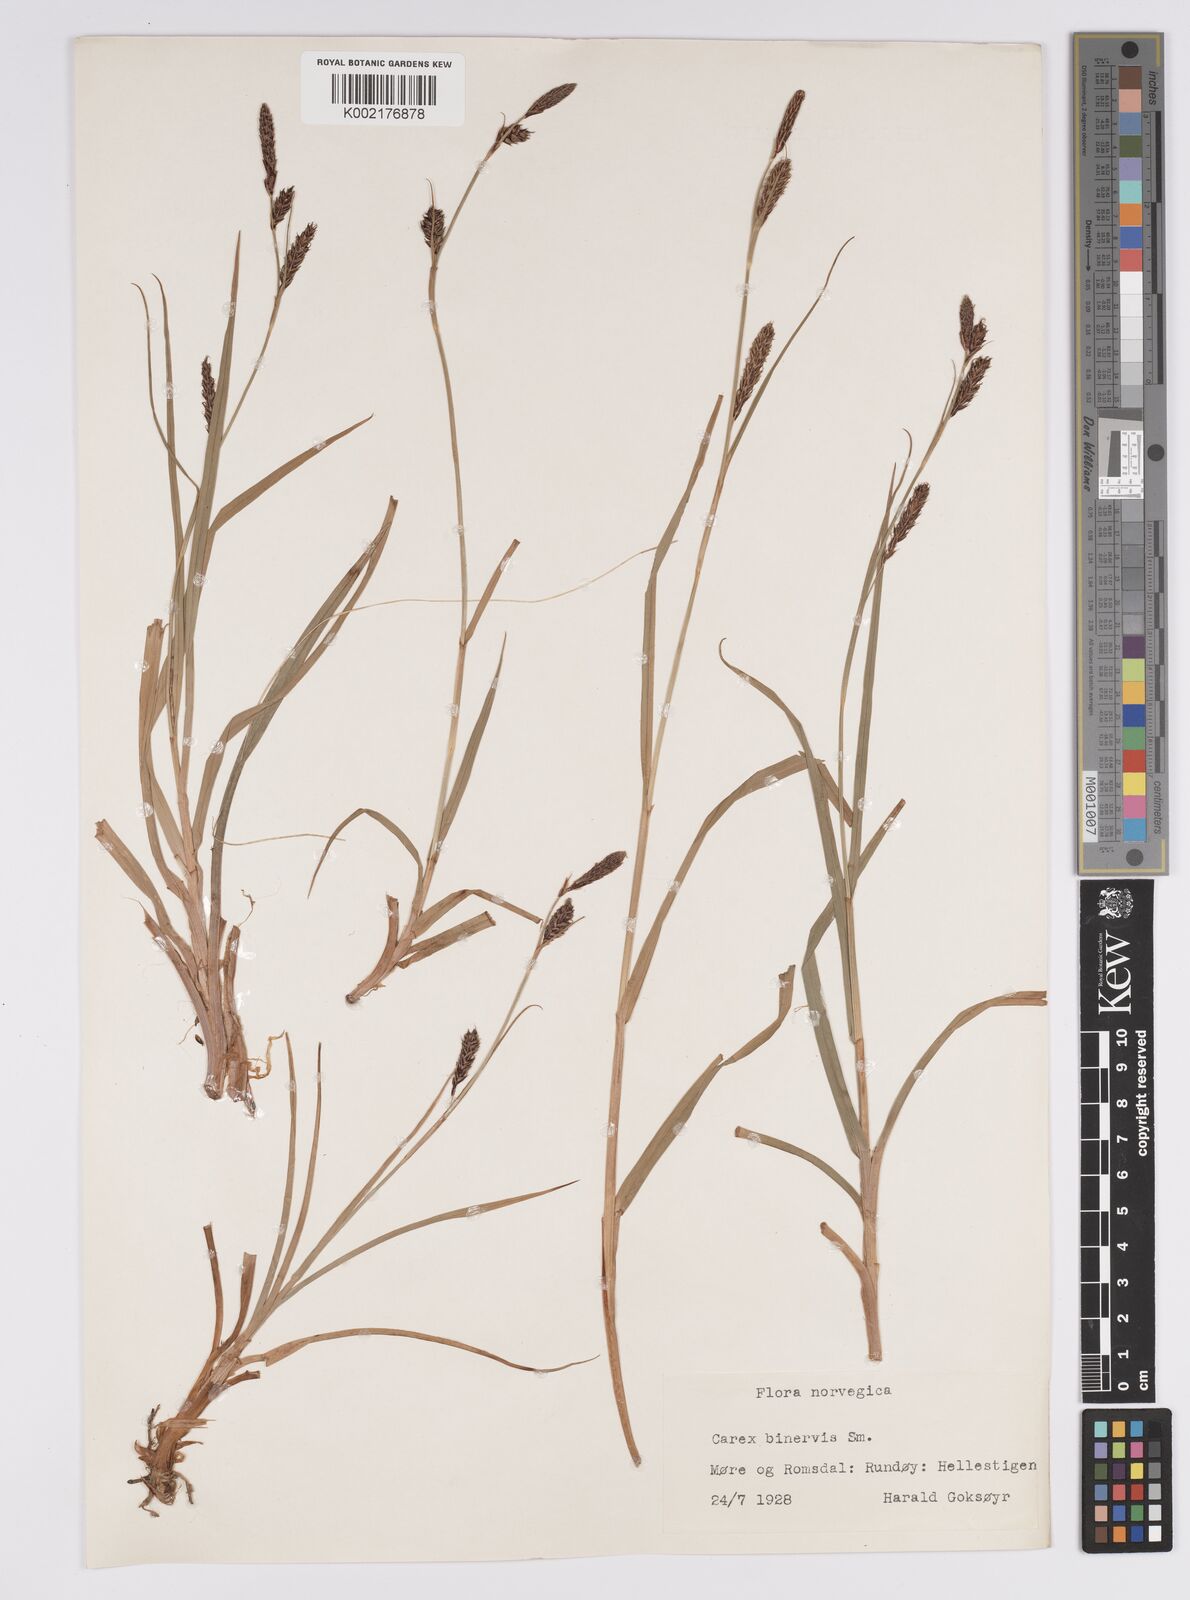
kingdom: Plantae
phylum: Tracheophyta
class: Liliopsida
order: Poales
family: Cyperaceae
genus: Carex
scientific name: Carex binervis
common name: Green-ribbed sedge
